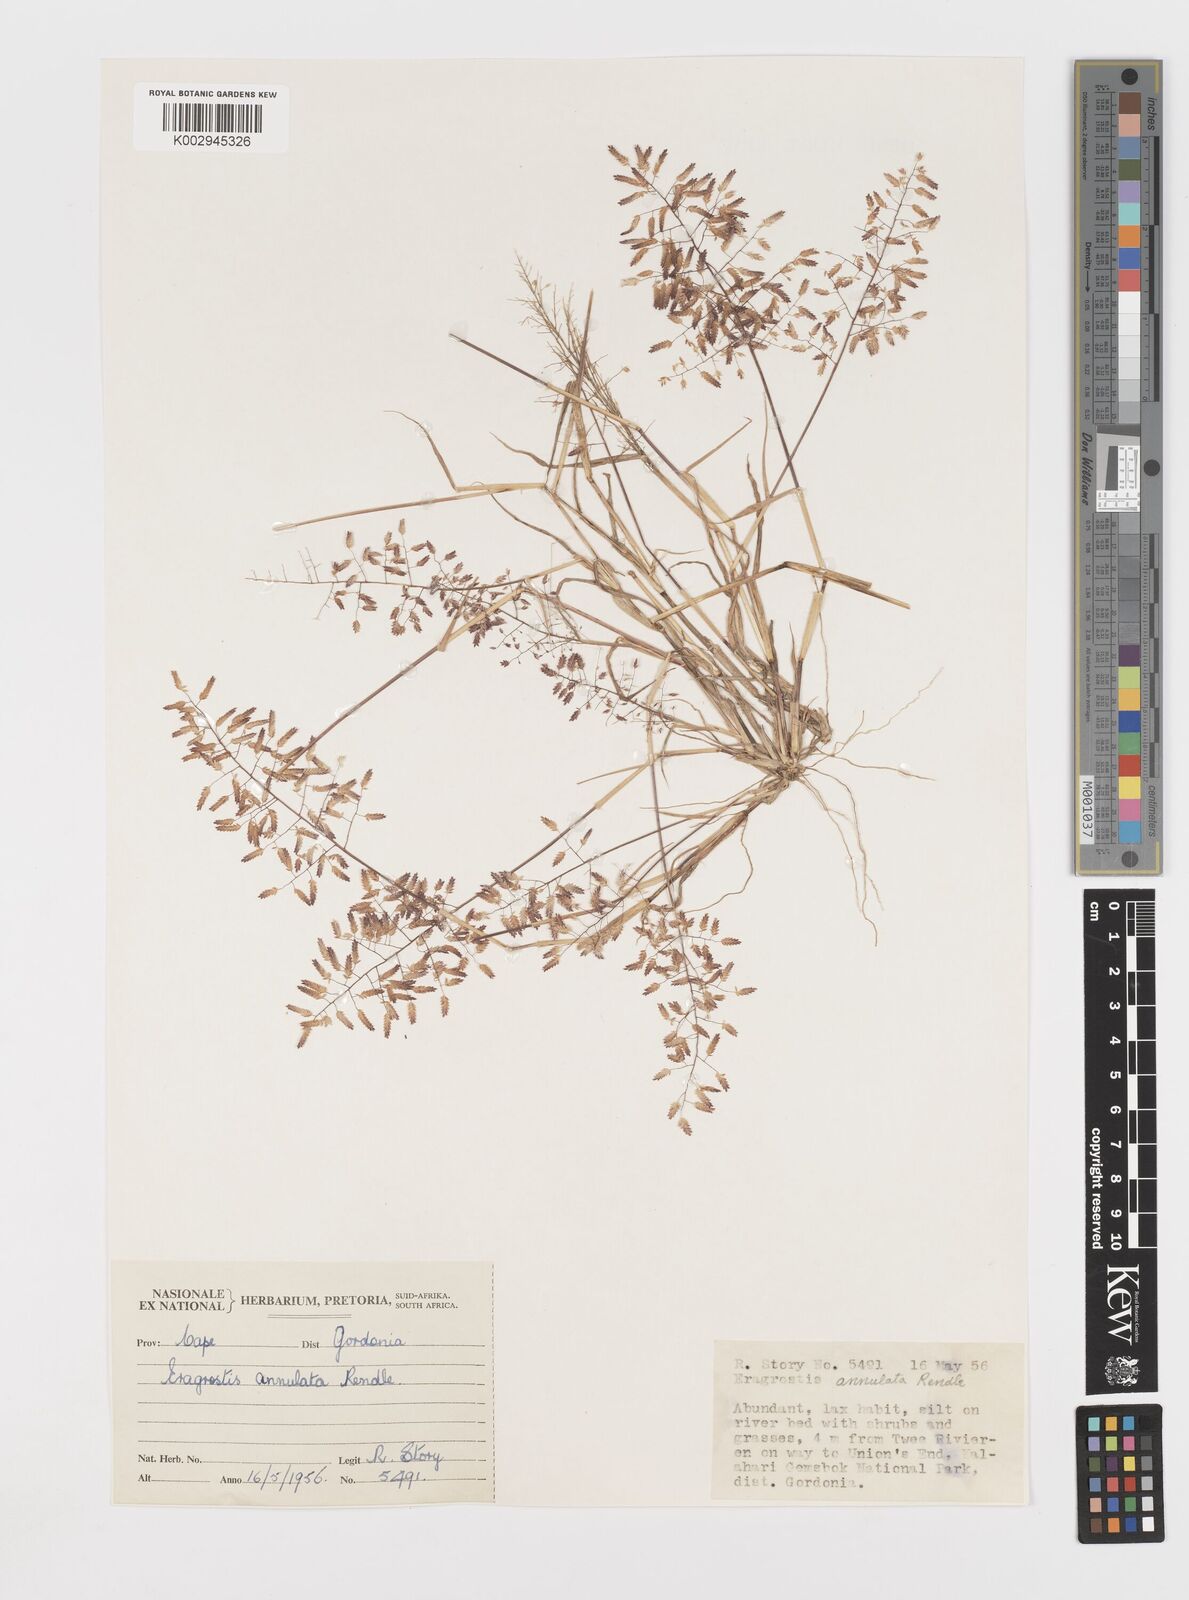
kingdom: Plantae
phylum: Tracheophyta
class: Liliopsida
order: Poales
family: Poaceae
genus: Eragrostis
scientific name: Eragrostis annulata
